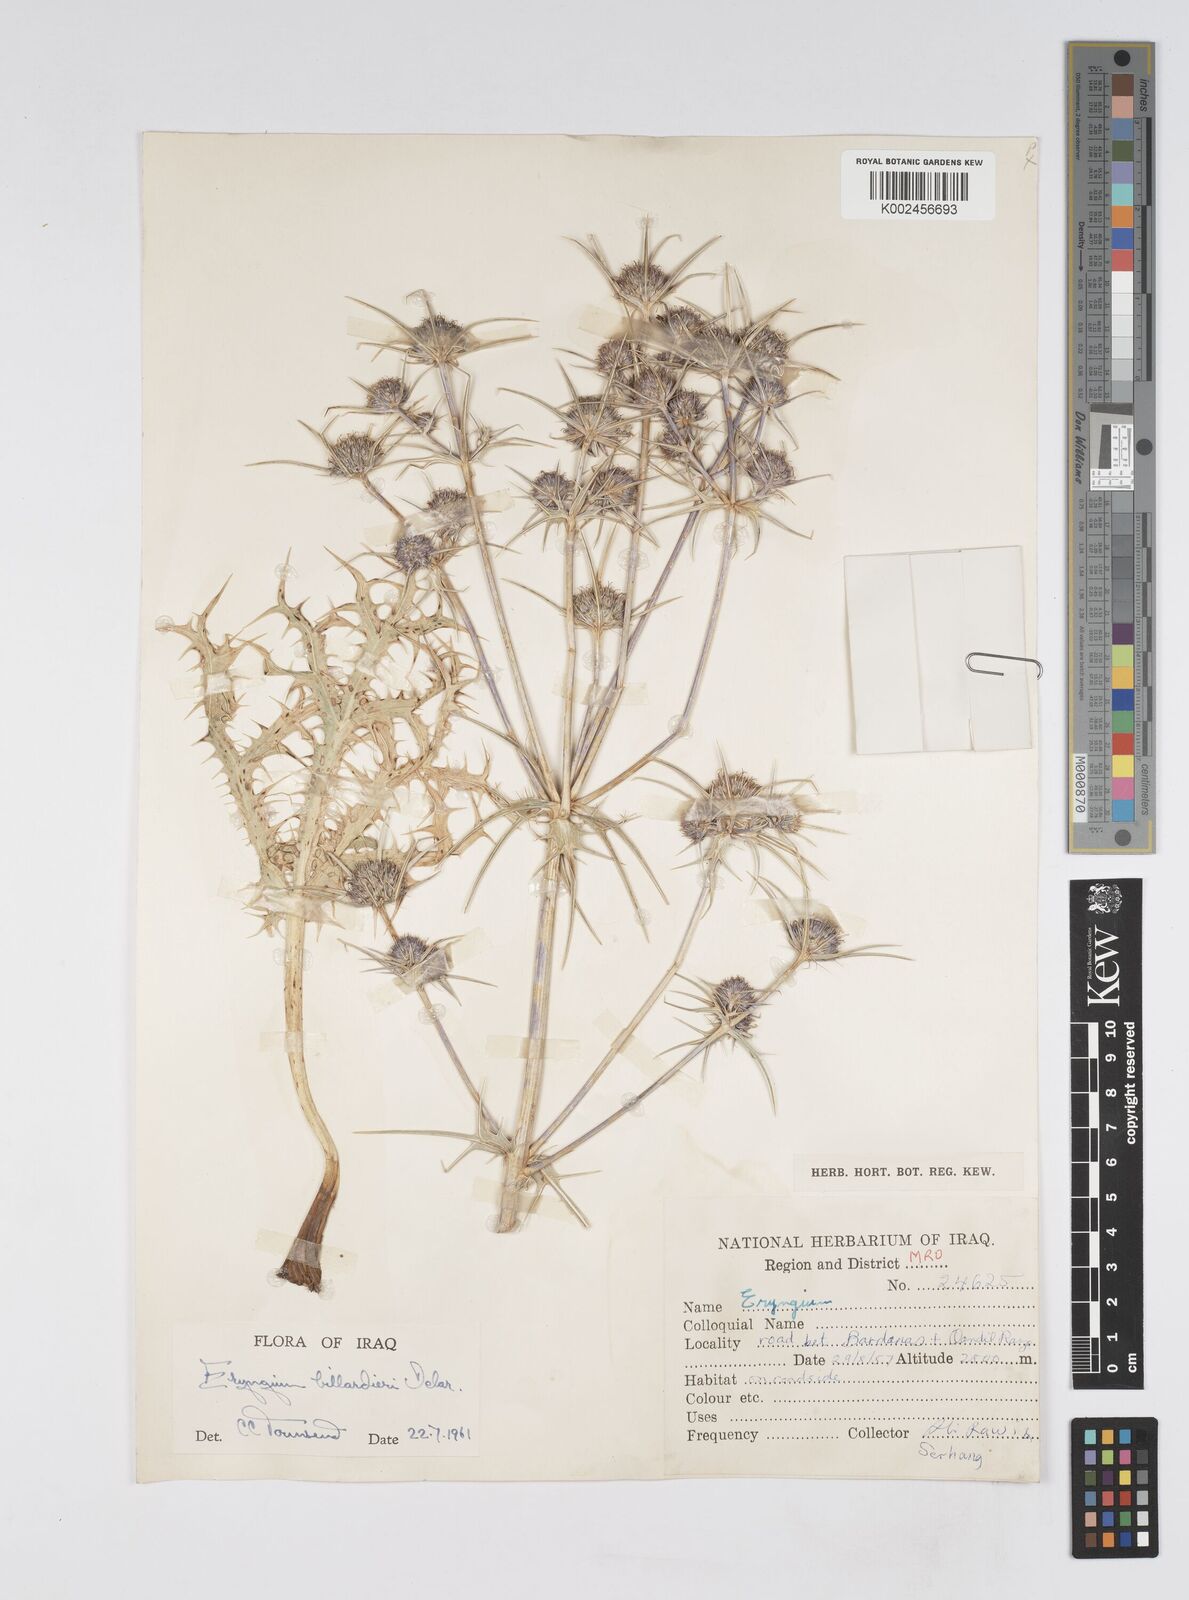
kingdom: Plantae
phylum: Tracheophyta
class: Magnoliopsida
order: Apiales
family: Apiaceae
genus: Eryngium
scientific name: Eryngium billardierei
